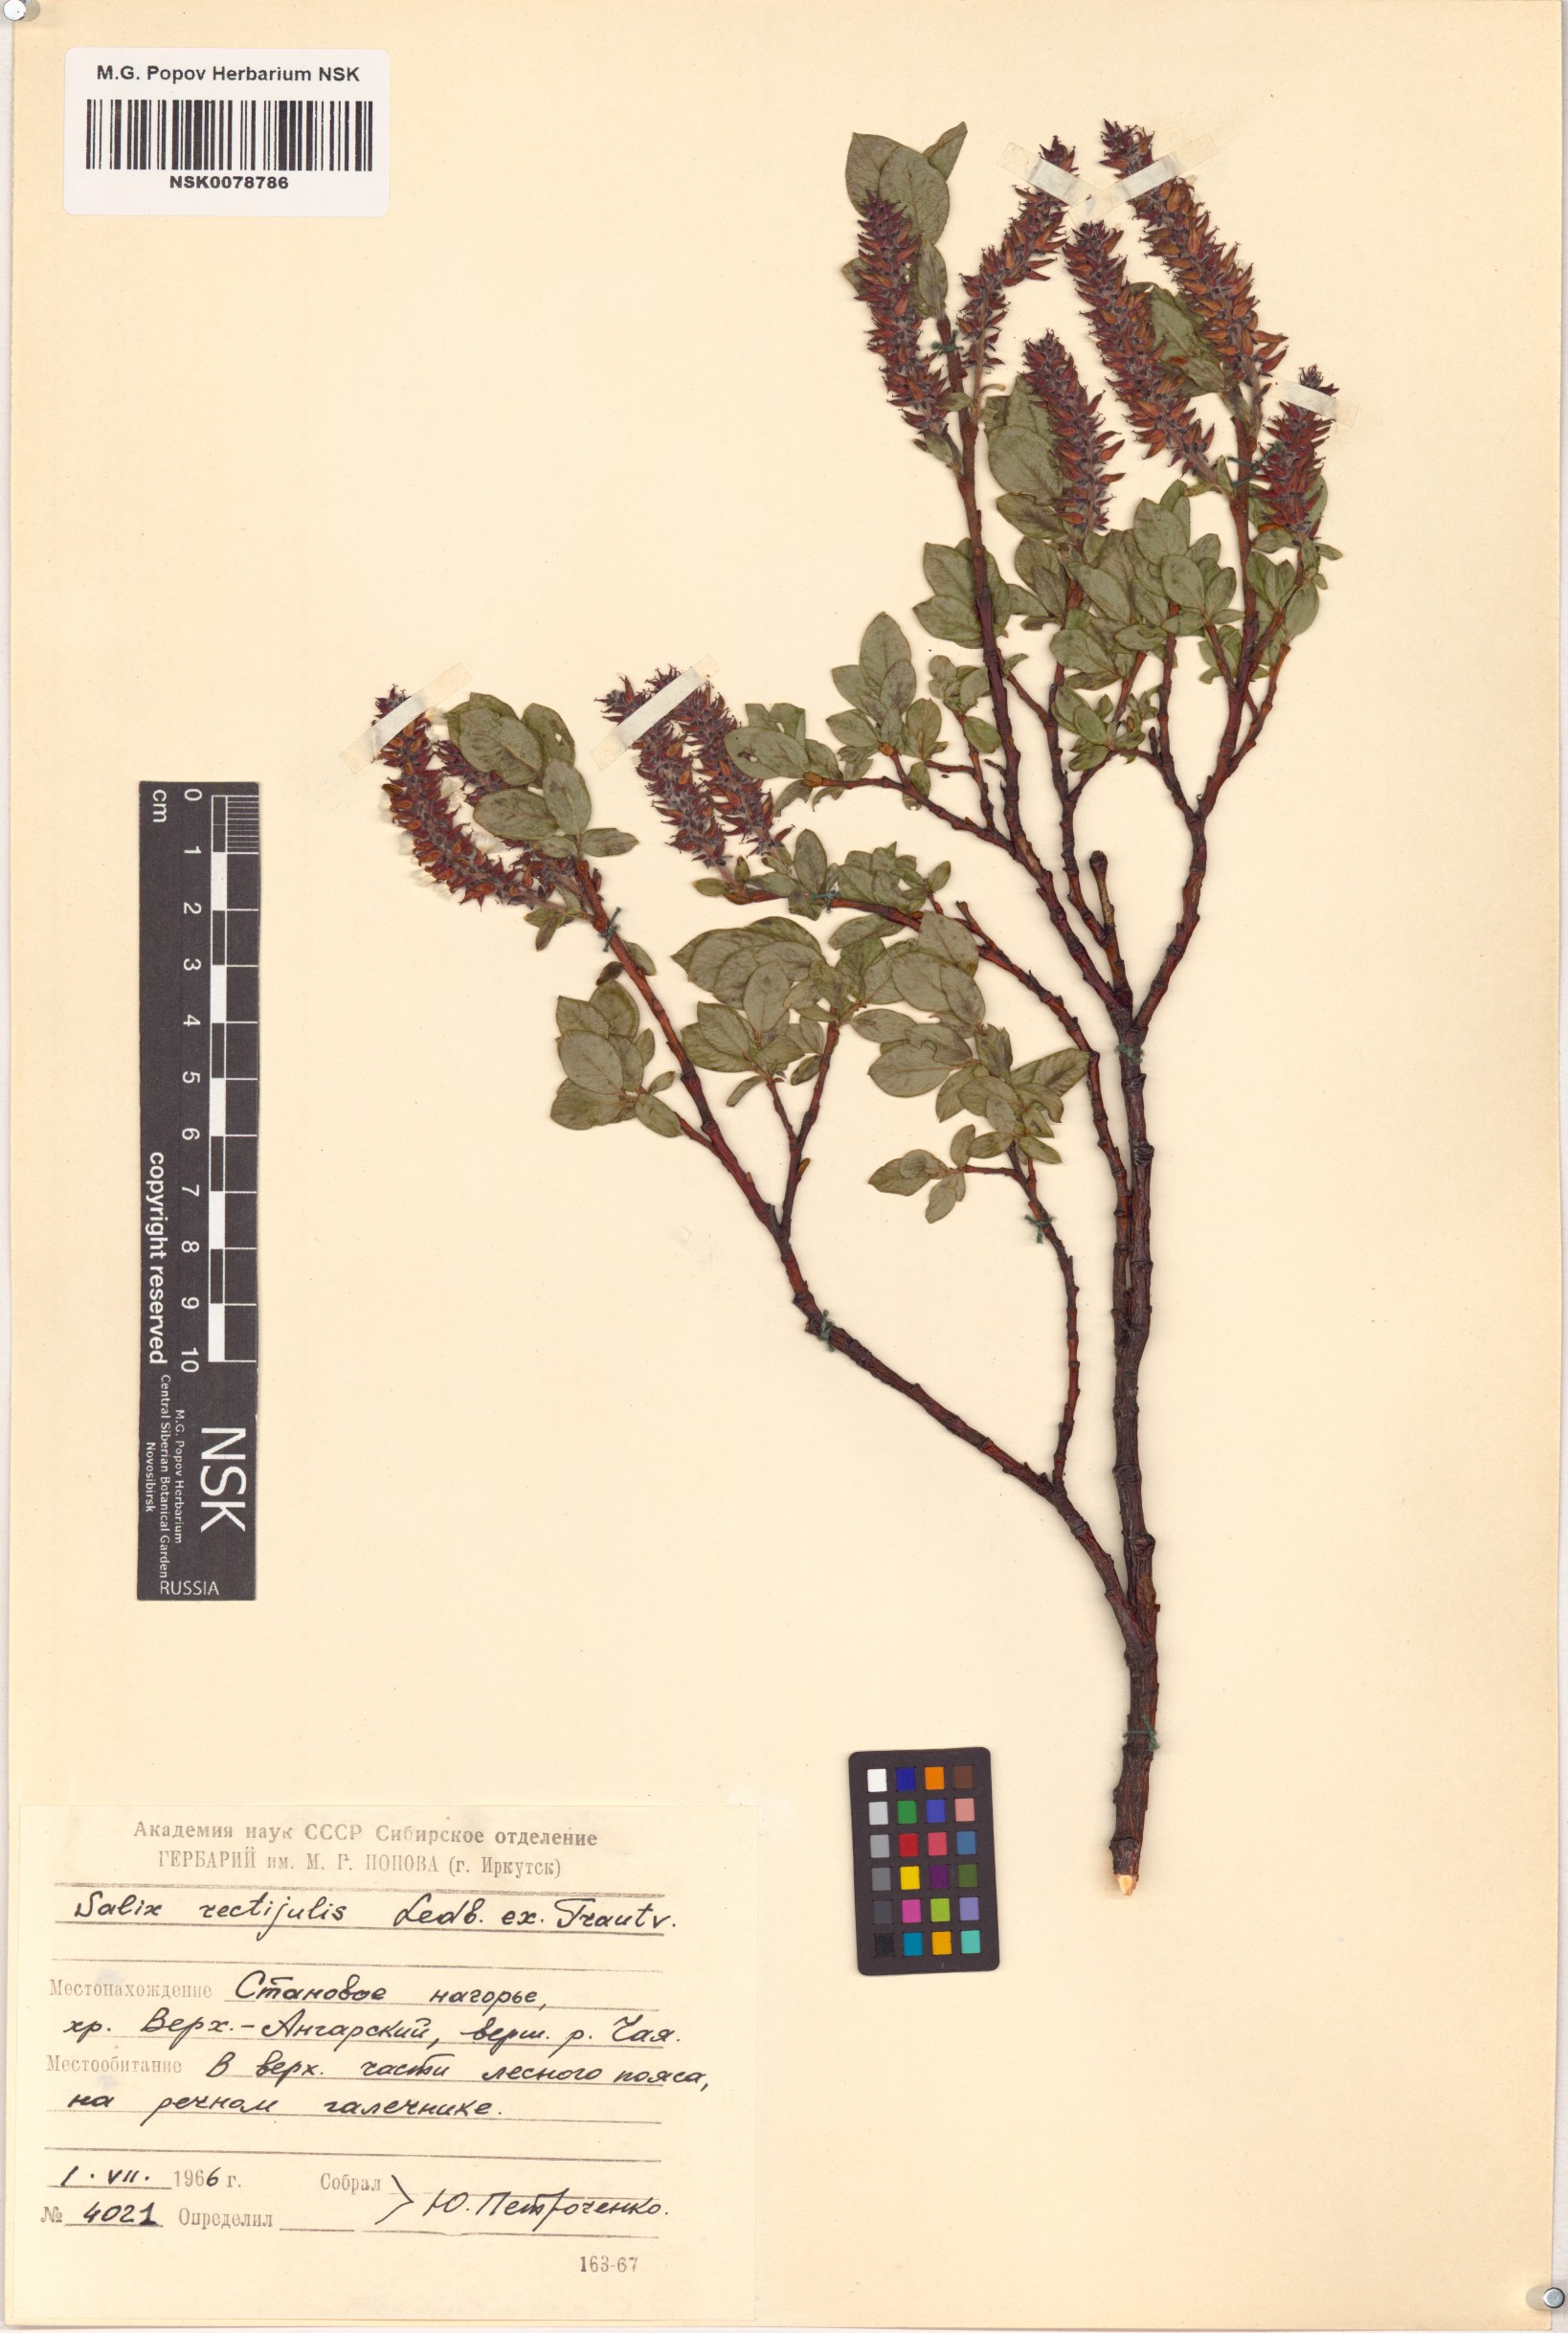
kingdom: Plantae
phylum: Tracheophyta
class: Magnoliopsida
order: Malpighiales
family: Salicaceae
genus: Salix
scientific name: Salix rectijulis
